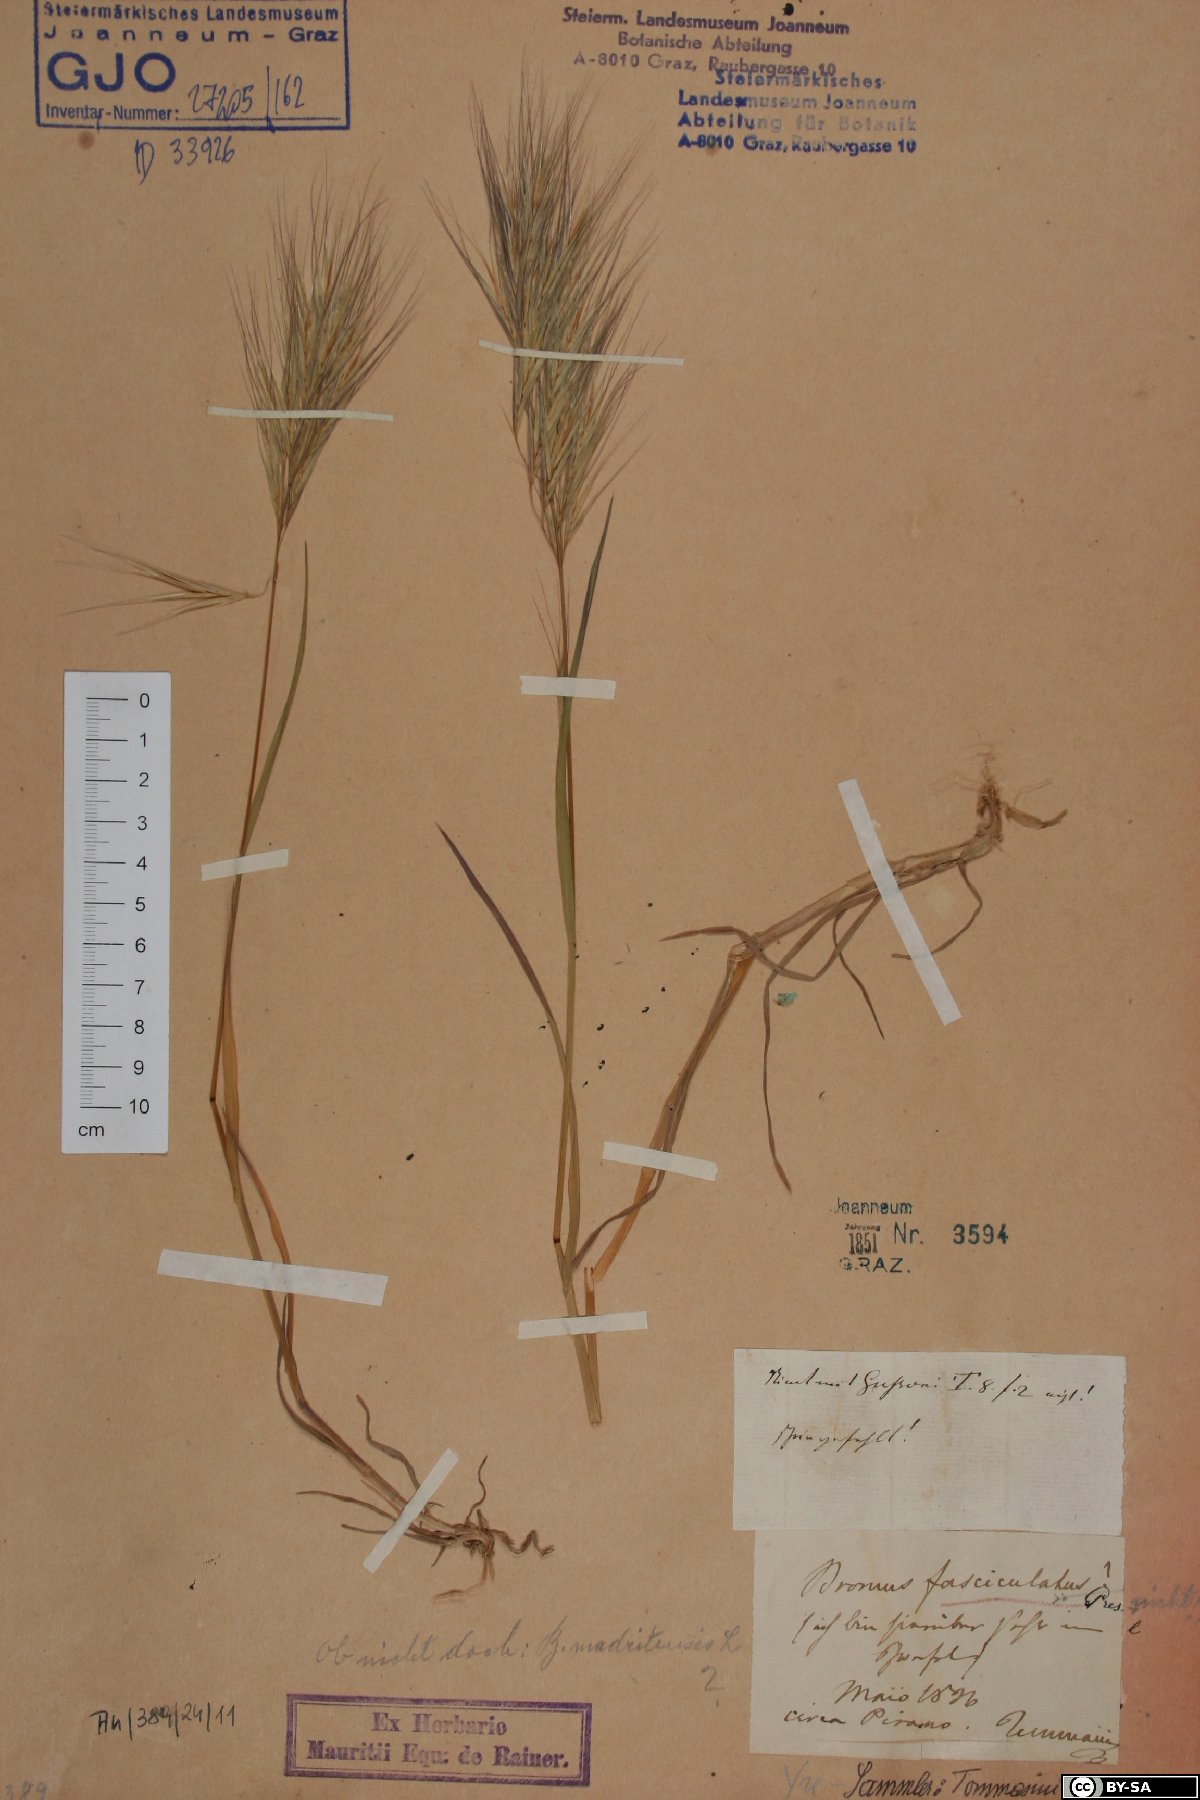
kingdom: Plantae
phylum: Tracheophyta
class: Liliopsida
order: Poales
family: Poaceae
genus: Bromus
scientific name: Bromus fasciculatus
